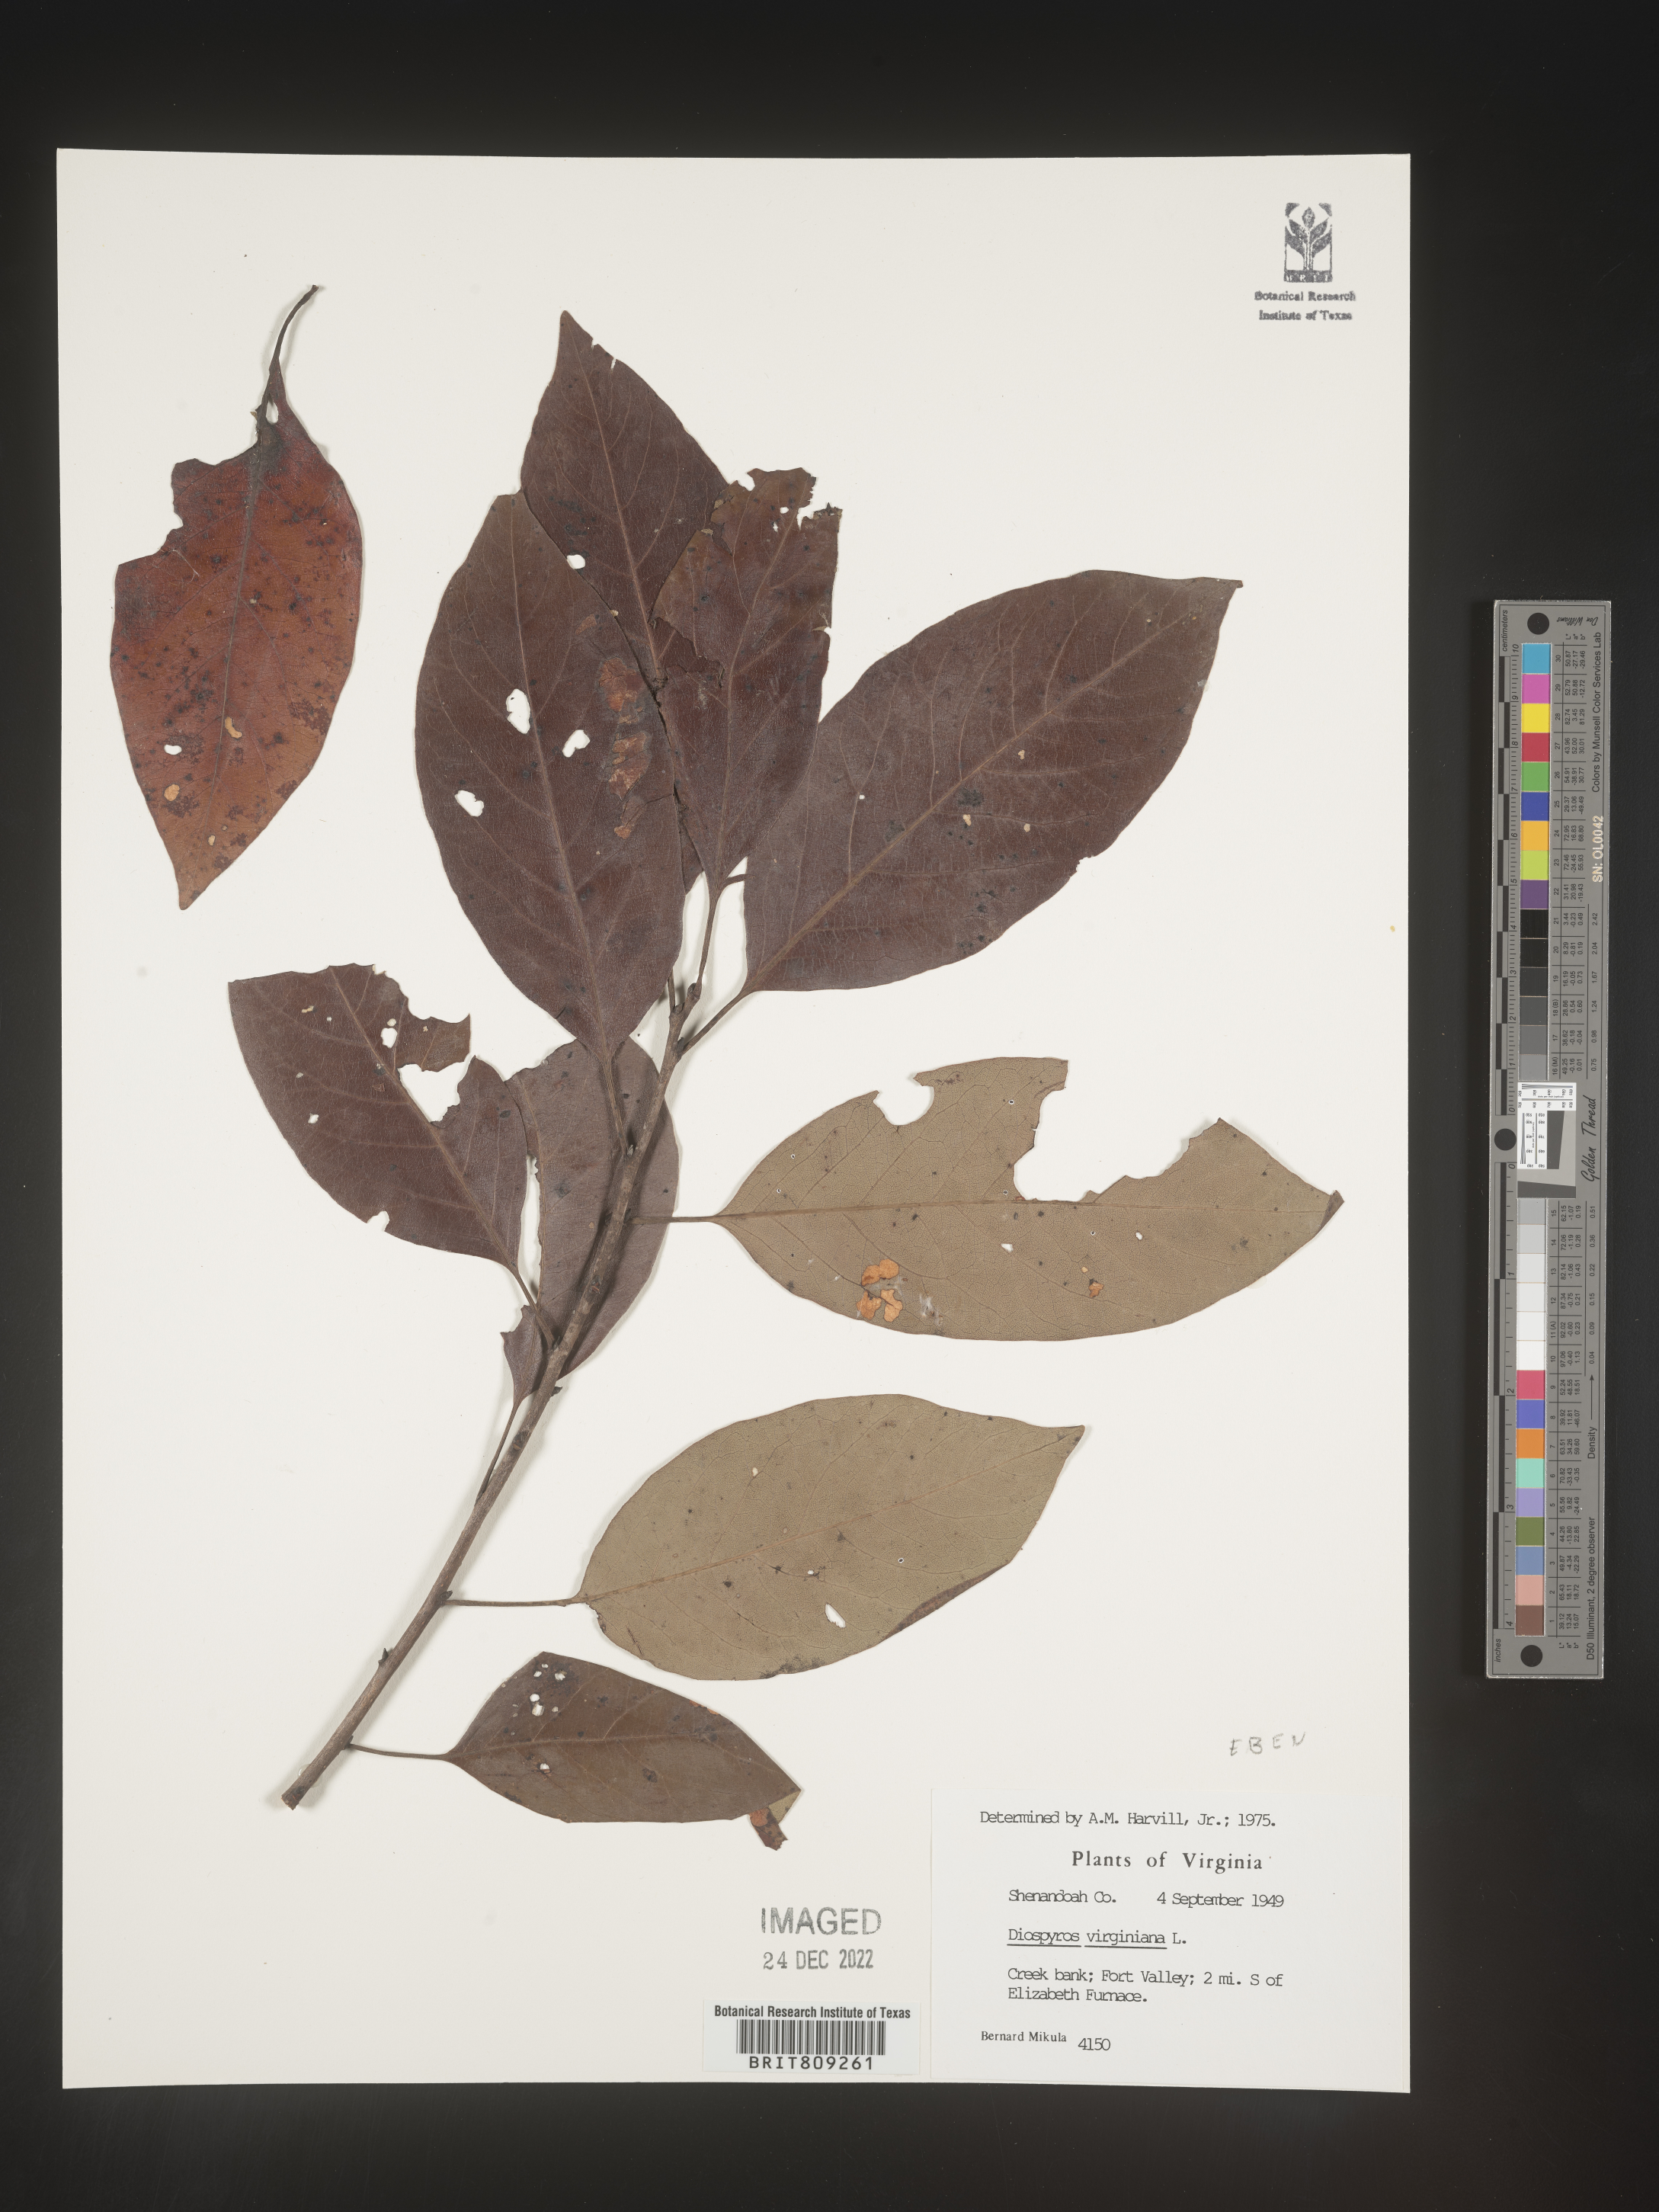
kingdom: Plantae
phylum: Tracheophyta
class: Magnoliopsida
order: Ericales
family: Ebenaceae
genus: Diospyros
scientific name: Diospyros virginiana
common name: Persimmon
